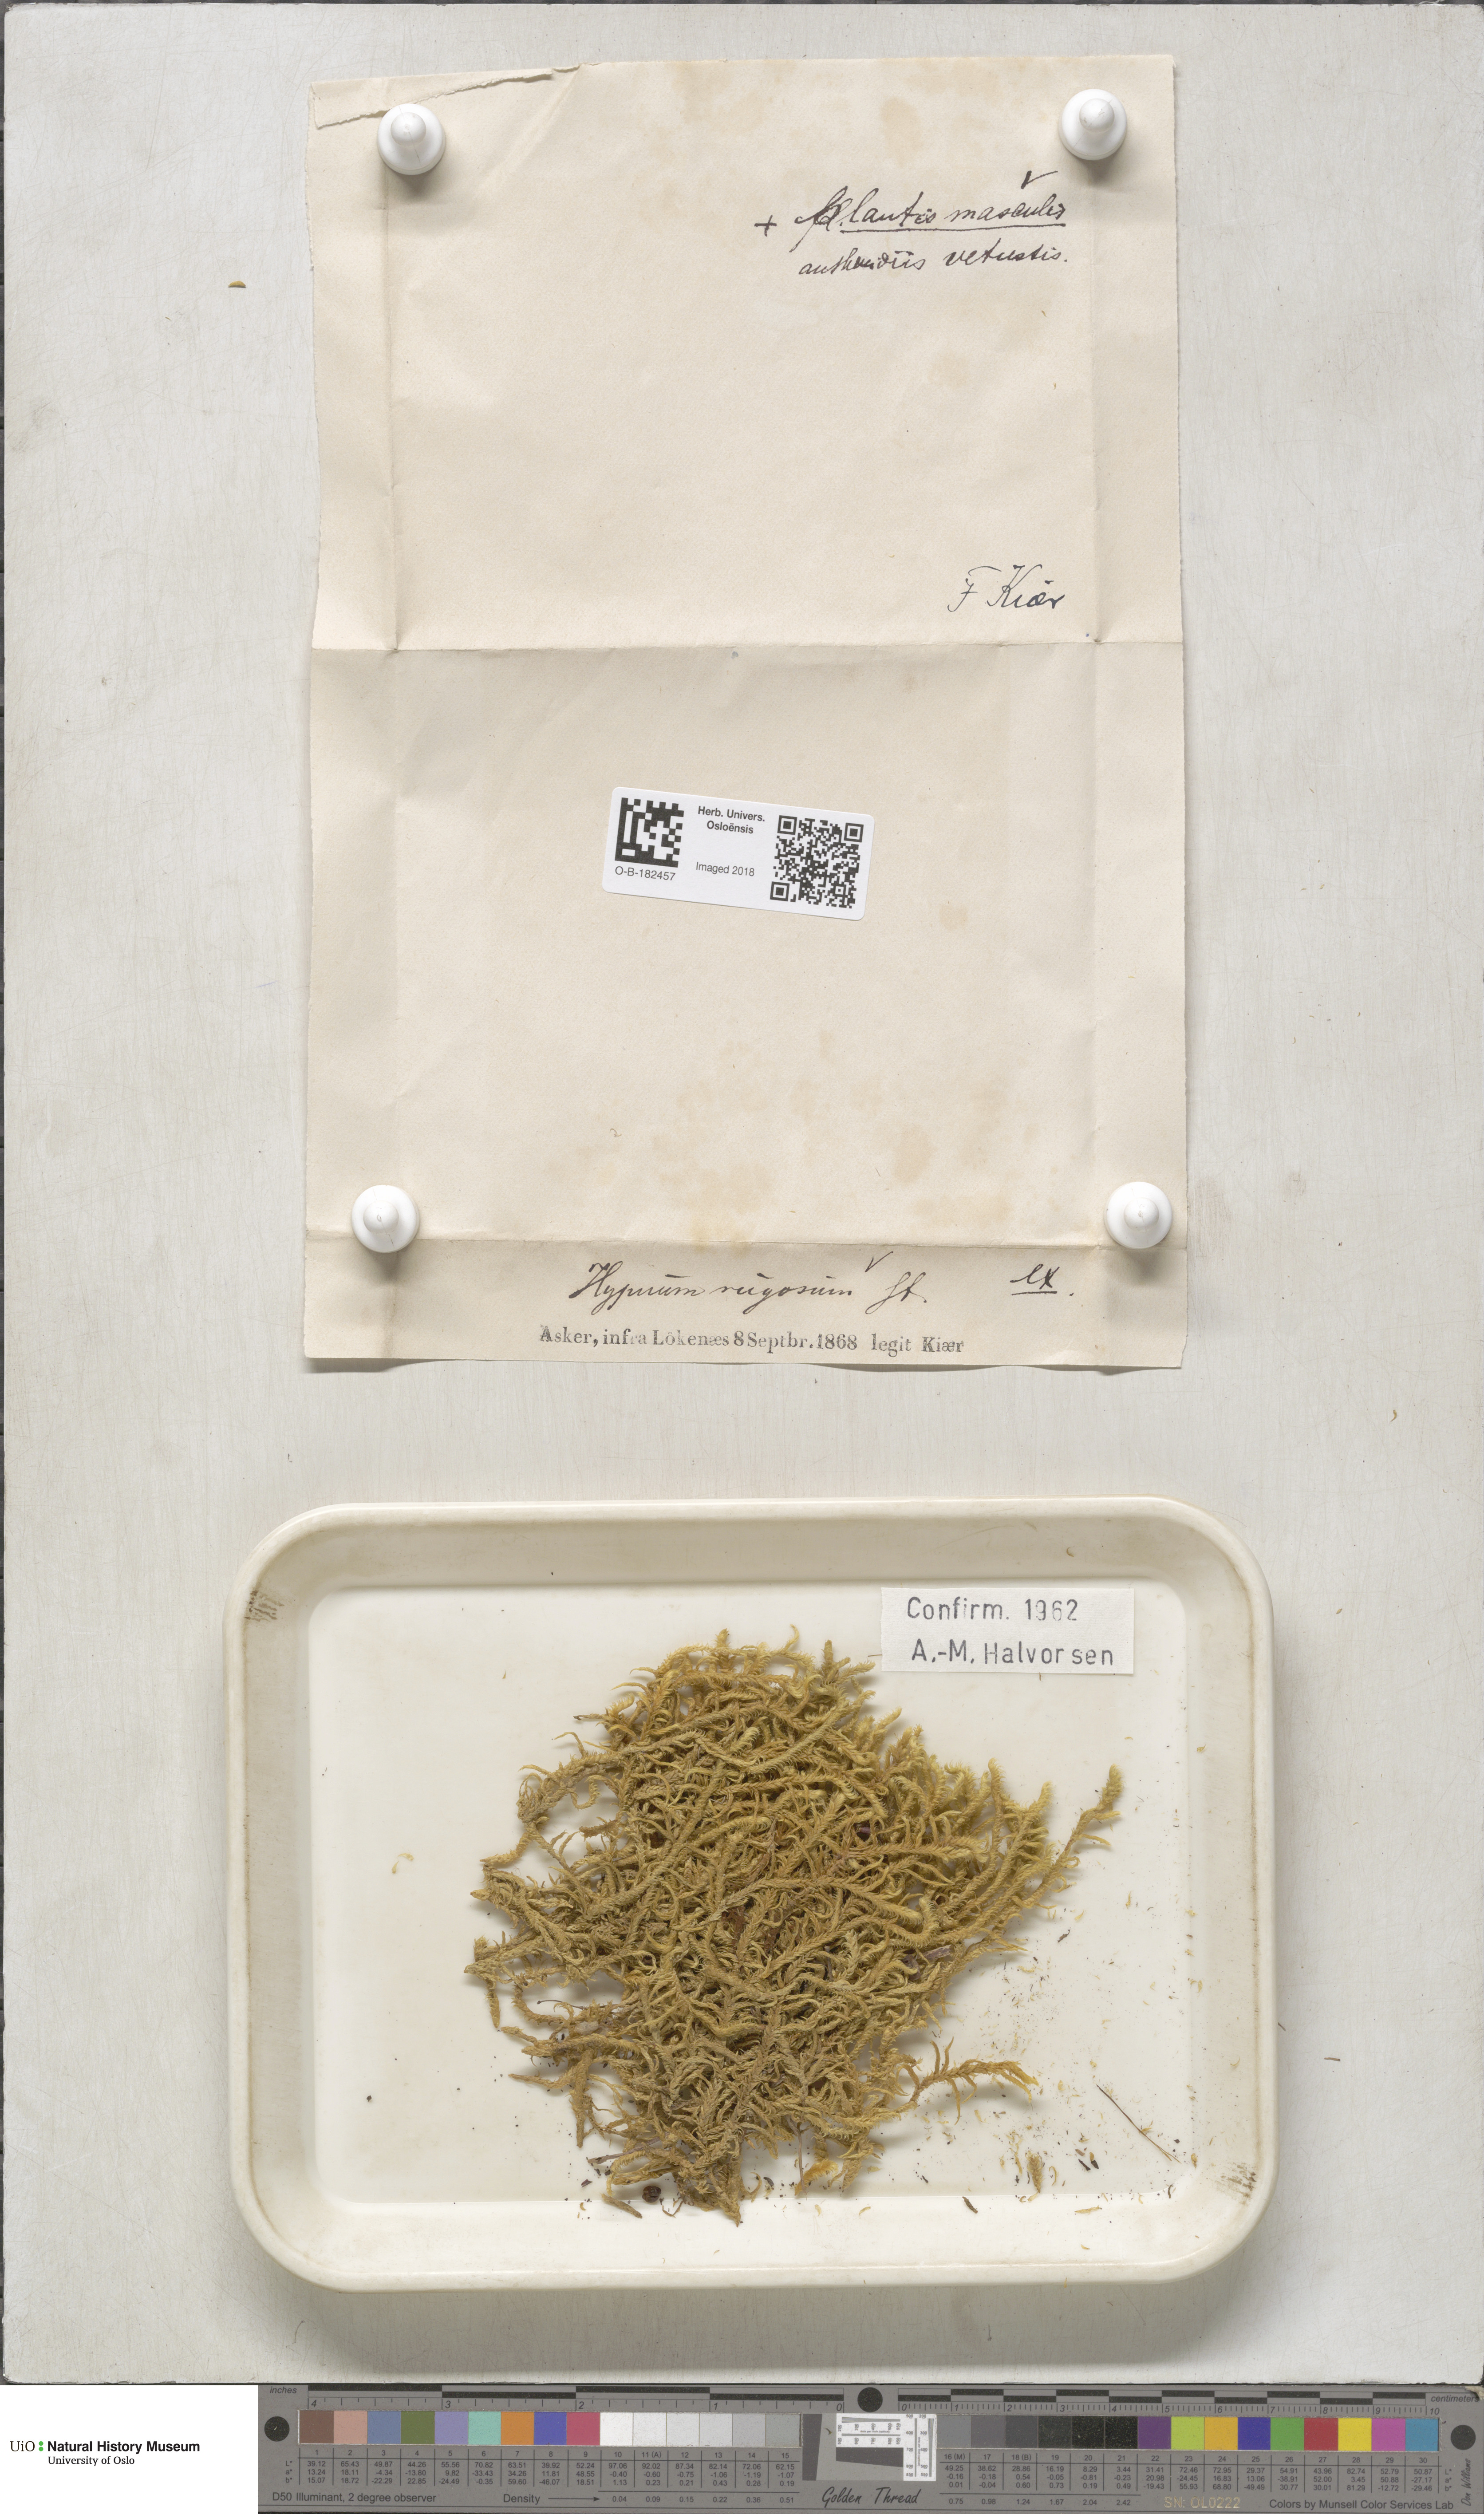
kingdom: Plantae
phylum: Bryophyta
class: Bryopsida
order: Hypnales
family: Rhytidiaceae
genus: Rhytidium
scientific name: Rhytidium rugosum
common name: Wrinkle-leaved moss
